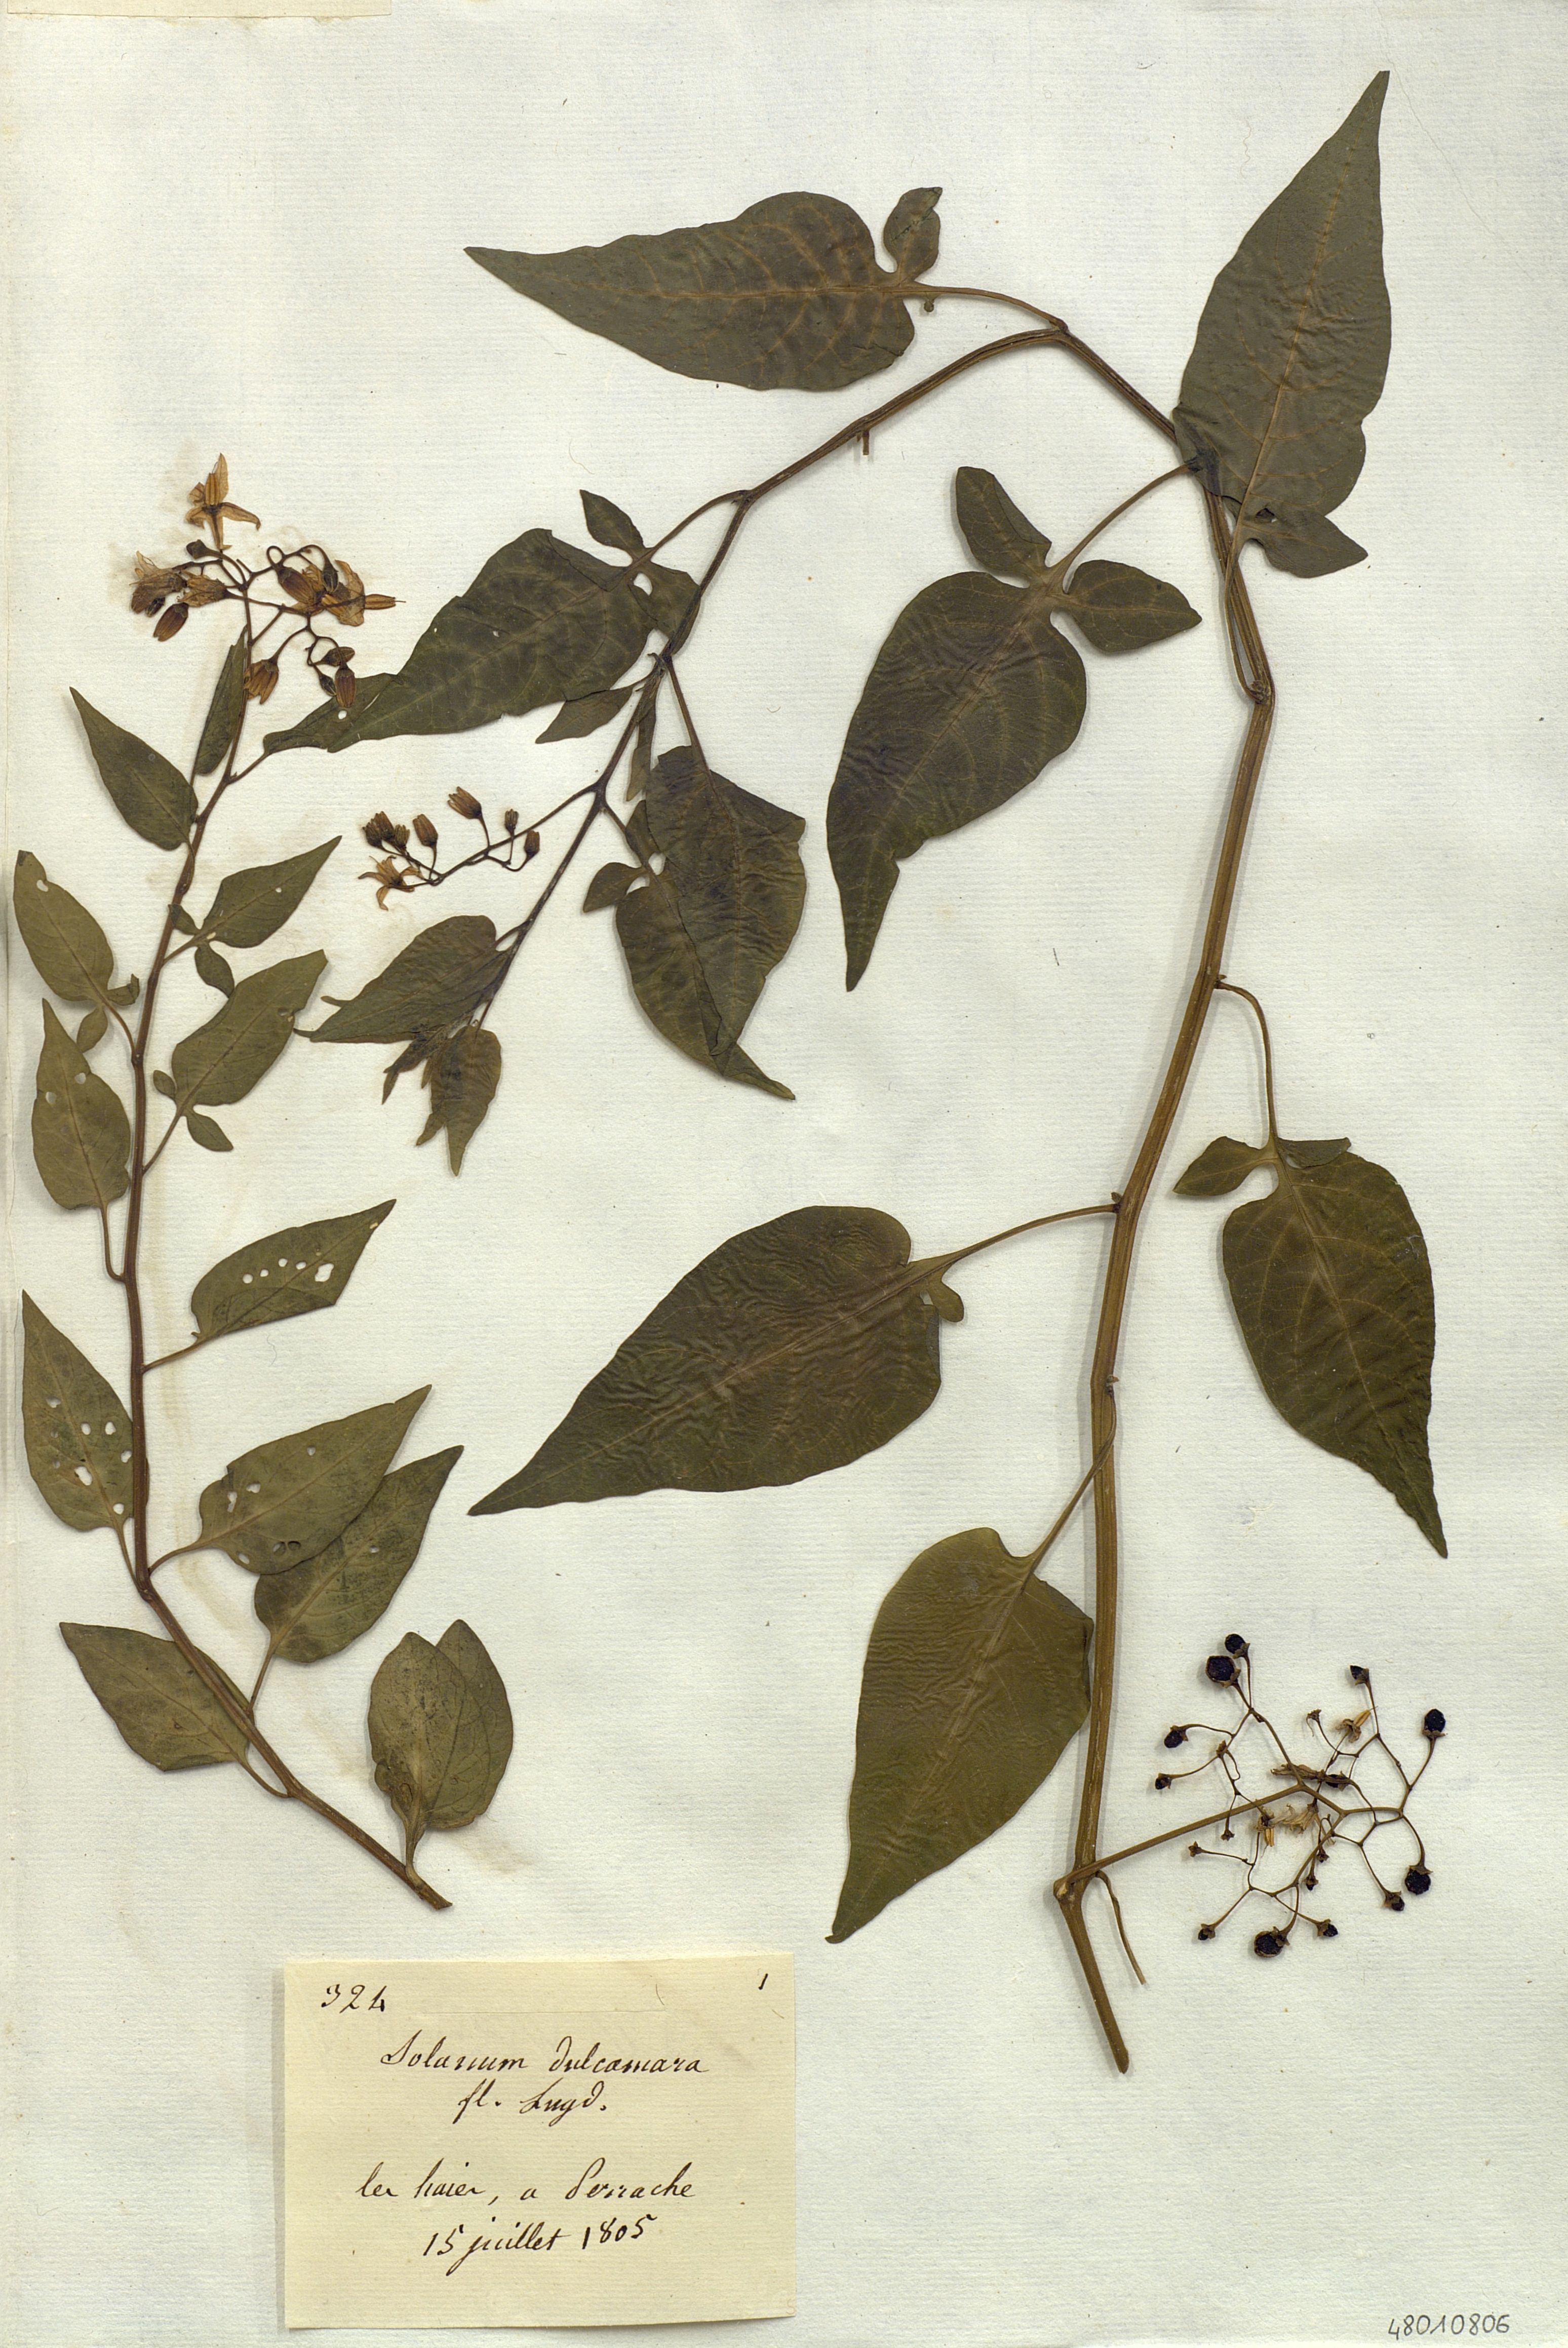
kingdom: Plantae
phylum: Tracheophyta
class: Magnoliopsida
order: Solanales
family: Solanaceae
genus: Solanum
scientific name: Solanum dulcamara
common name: Climbing nightshade
